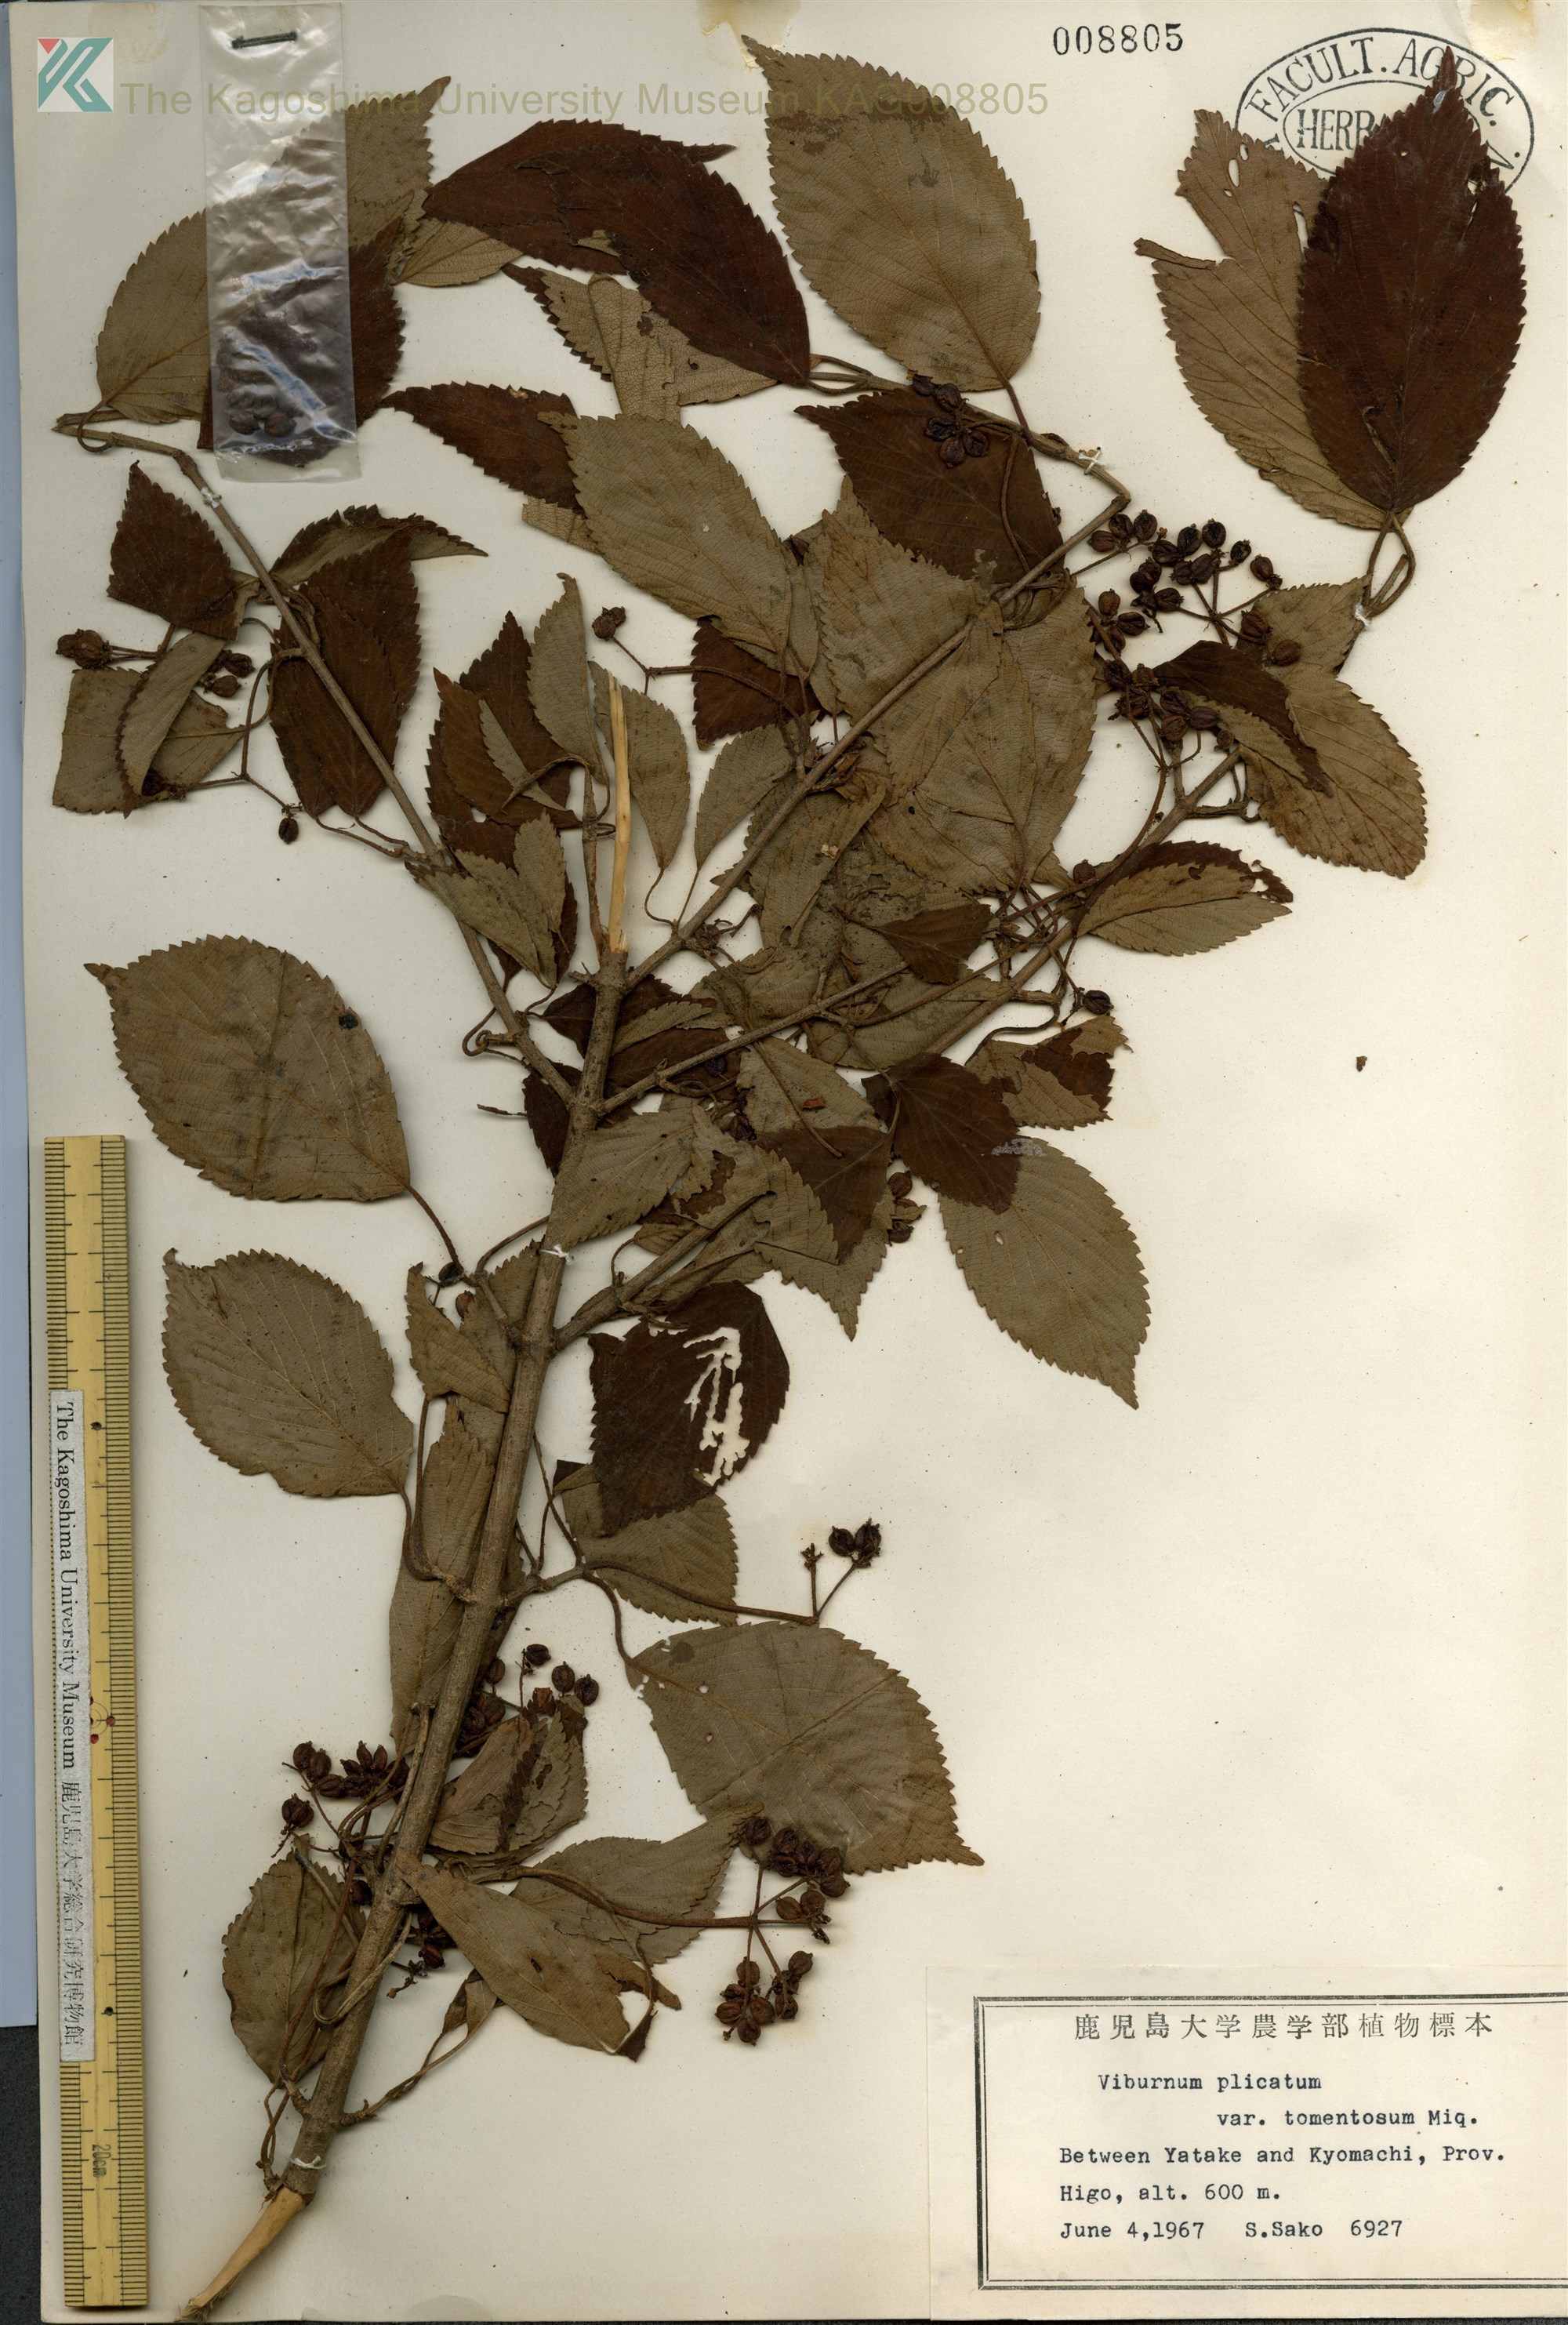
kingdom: Plantae
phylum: Tracheophyta
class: Magnoliopsida
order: Dipsacales
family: Viburnaceae
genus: Viburnum
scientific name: Viburnum plicatum
